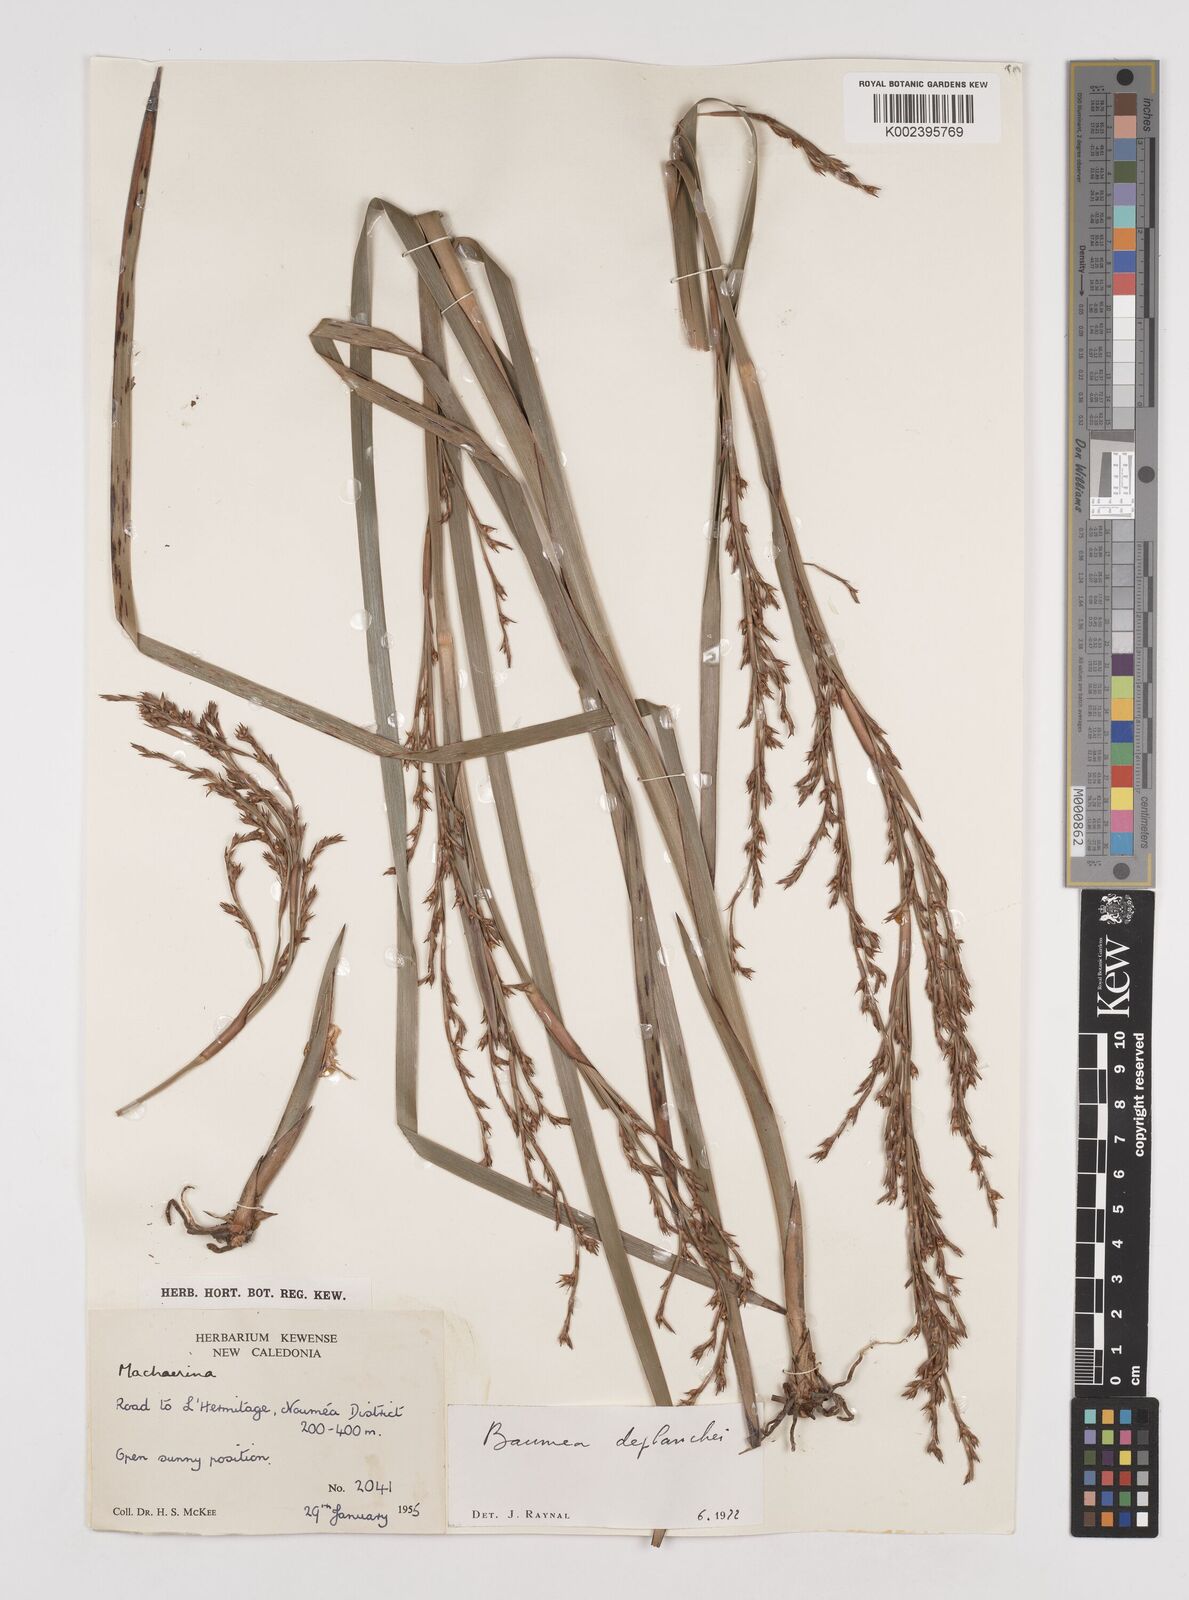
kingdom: Plantae
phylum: Tracheophyta
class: Liliopsida
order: Poales
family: Cyperaceae
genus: Machaerina
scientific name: Machaerina deplanchei
